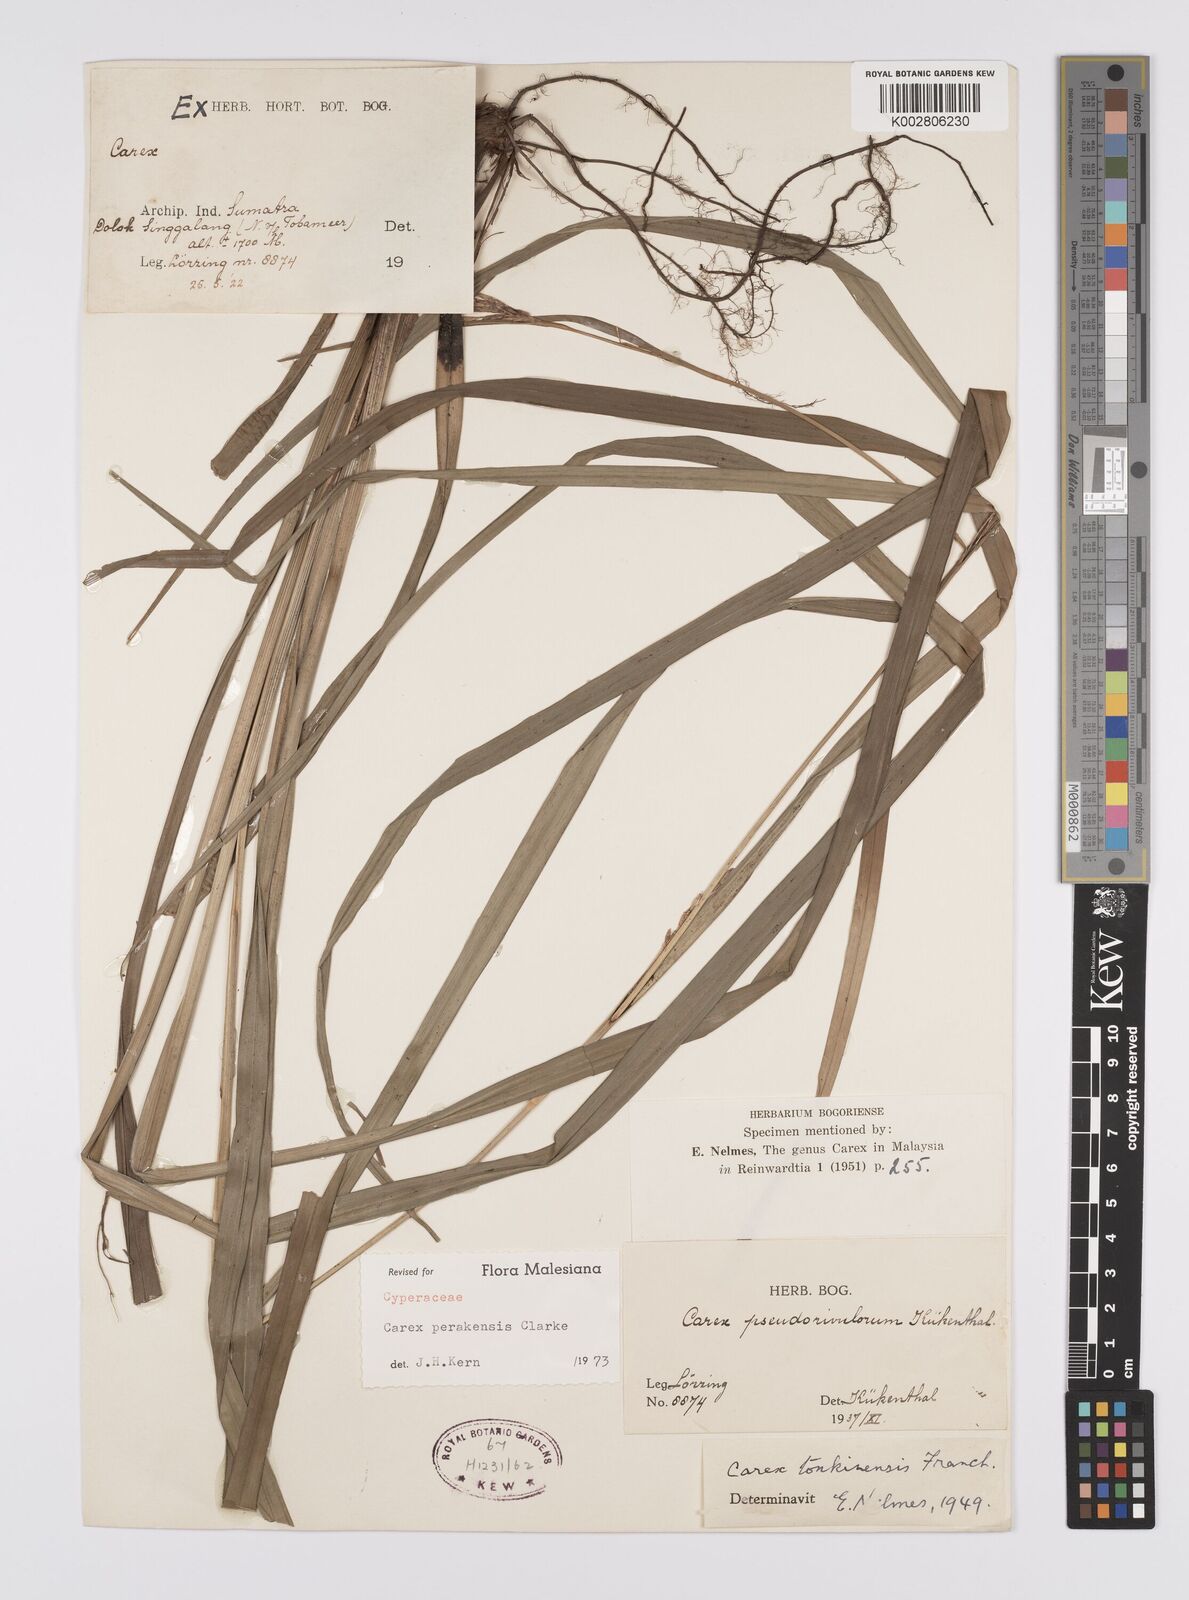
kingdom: Plantae
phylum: Tracheophyta
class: Liliopsida
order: Poales
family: Cyperaceae
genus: Carex
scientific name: Carex perakensis
